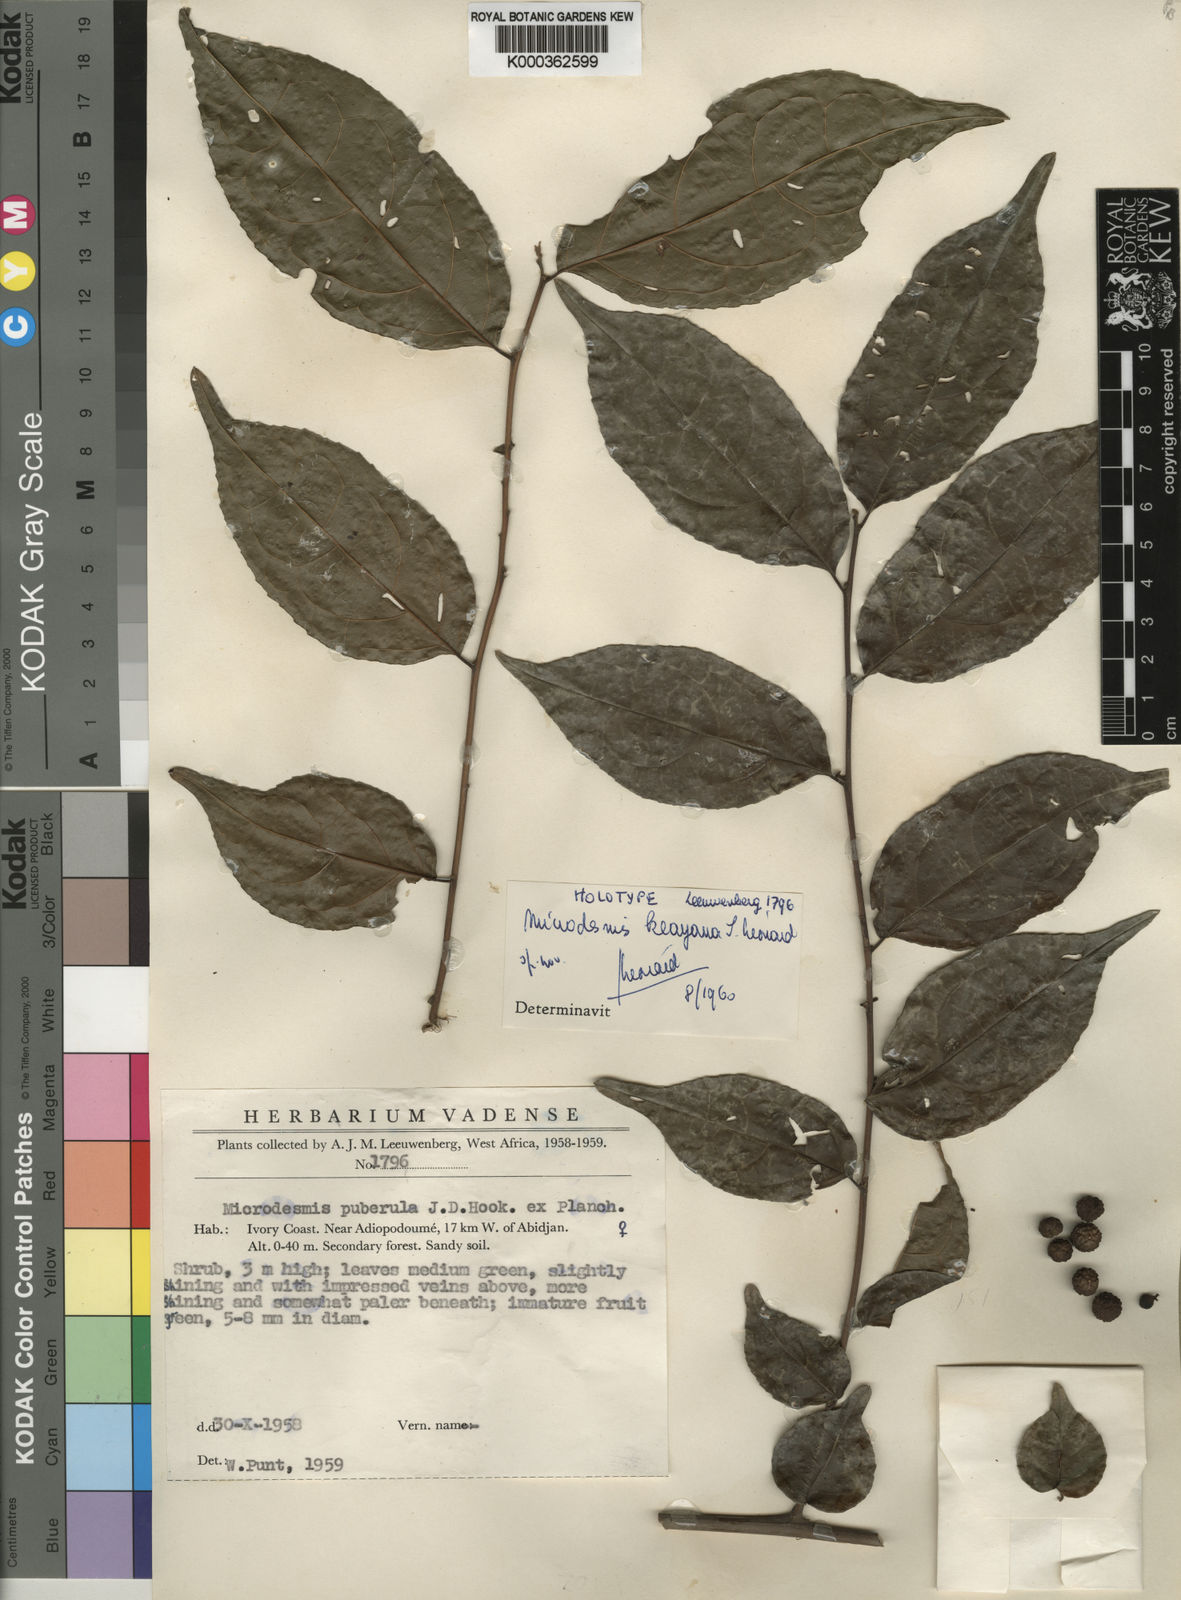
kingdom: Plantae
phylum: Tracheophyta
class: Magnoliopsida
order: Malpighiales
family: Pandaceae
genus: Microdesmis
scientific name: Microdesmis
